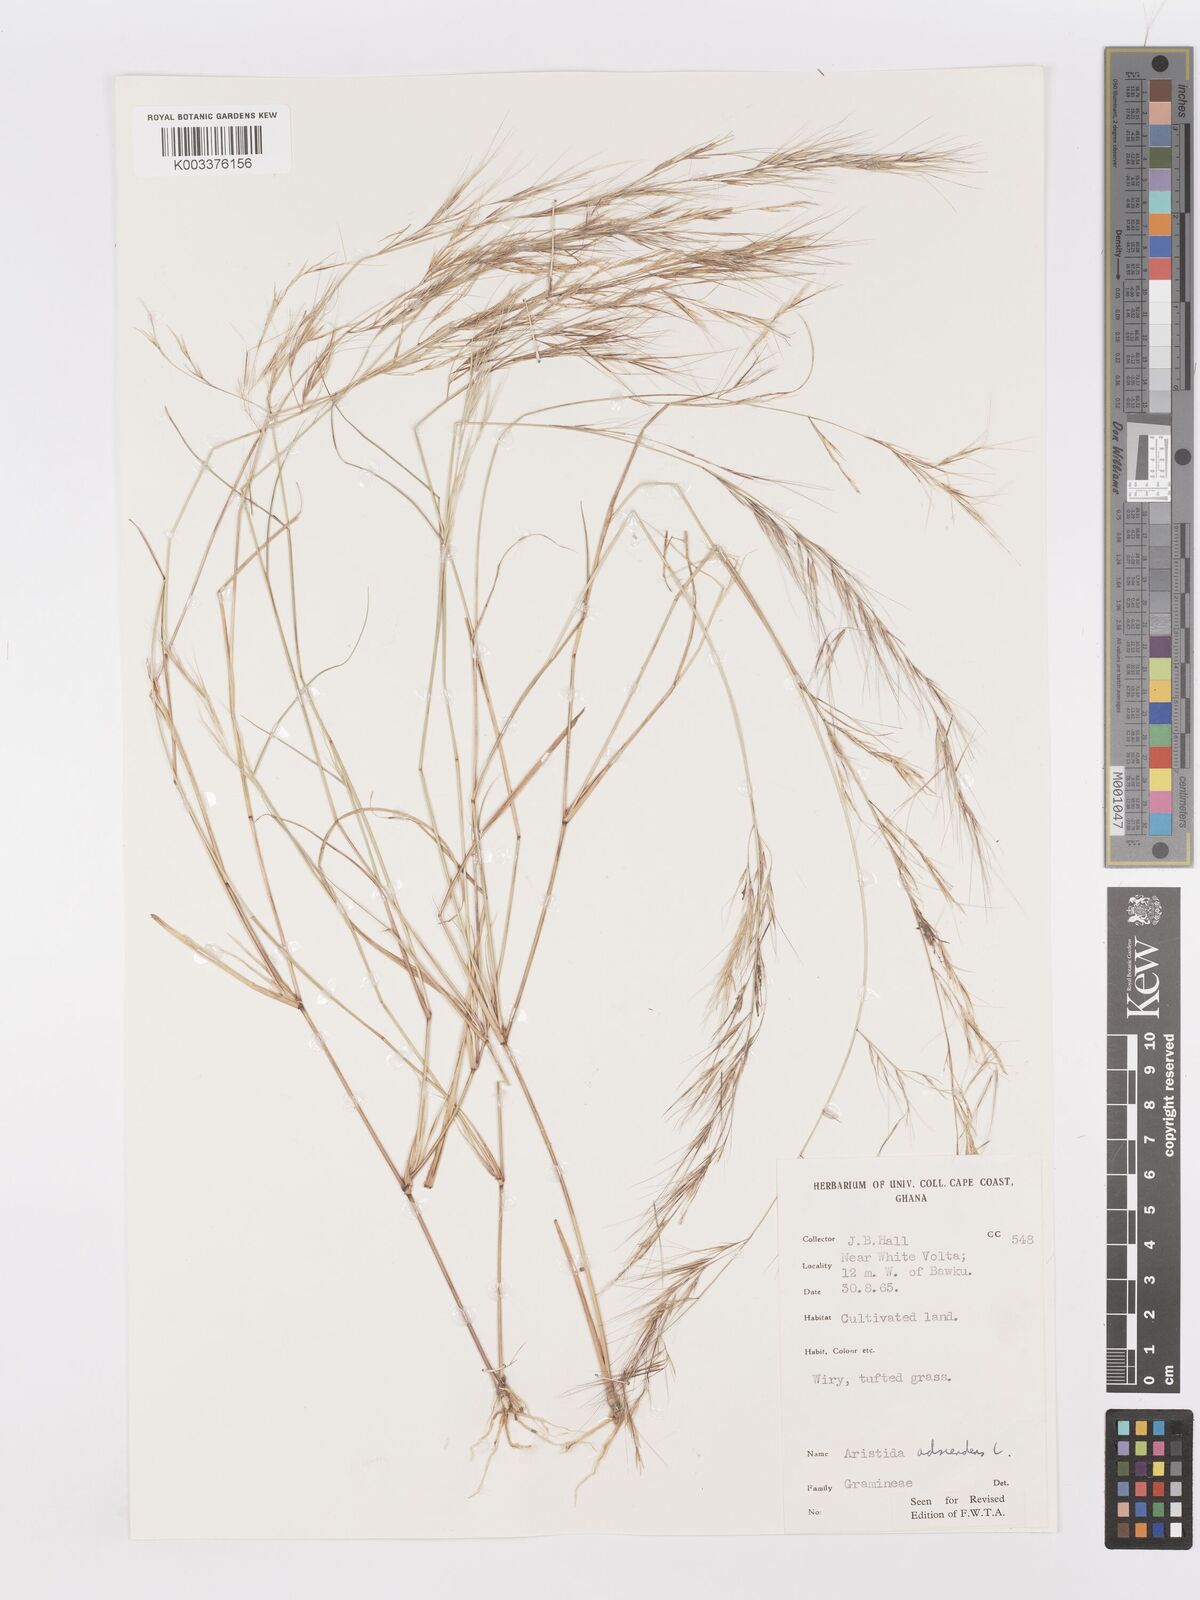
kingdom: Plantae
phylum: Tracheophyta
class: Liliopsida
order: Poales
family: Poaceae
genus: Aristida
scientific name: Aristida adscensionis
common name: Sixweeks threeawn
